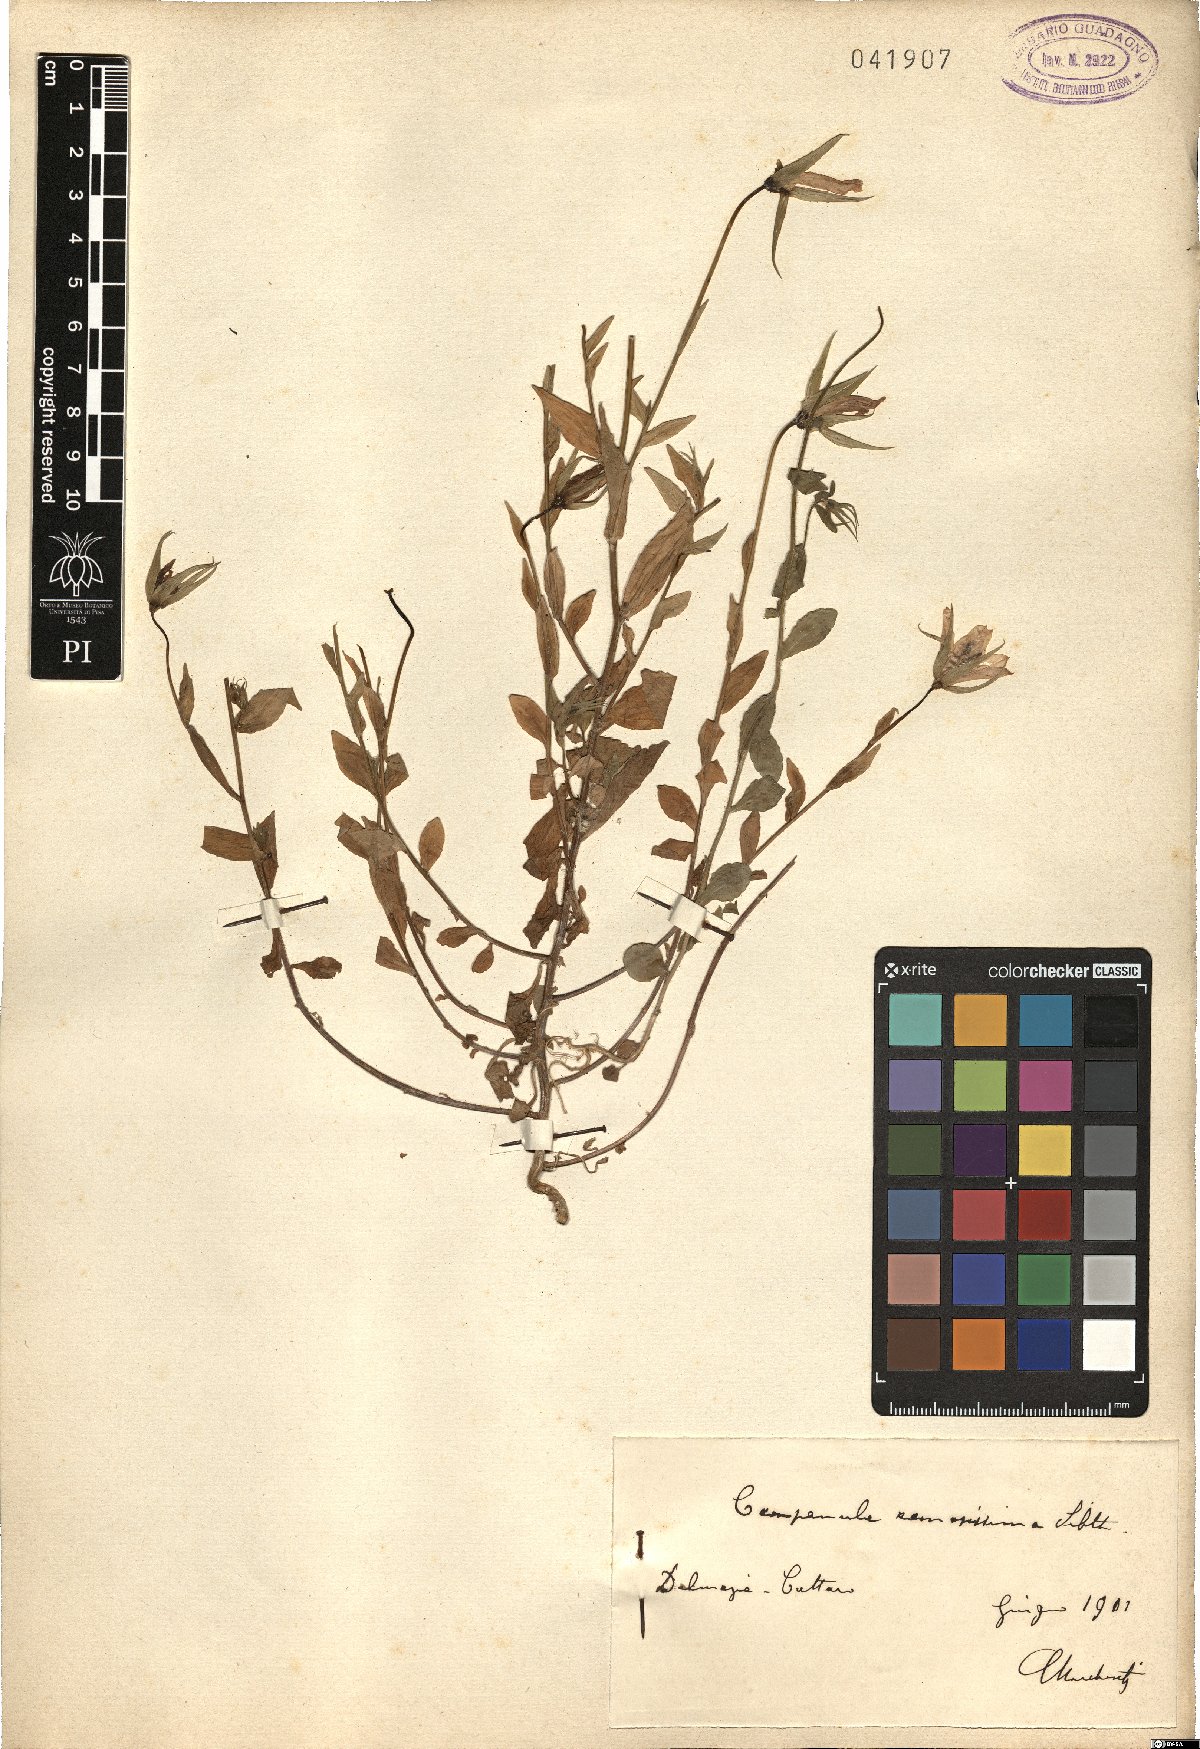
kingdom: Plantae
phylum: Tracheophyta
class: Magnoliopsida
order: Asterales
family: Campanulaceae
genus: Campanula
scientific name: Campanula ramosissima
